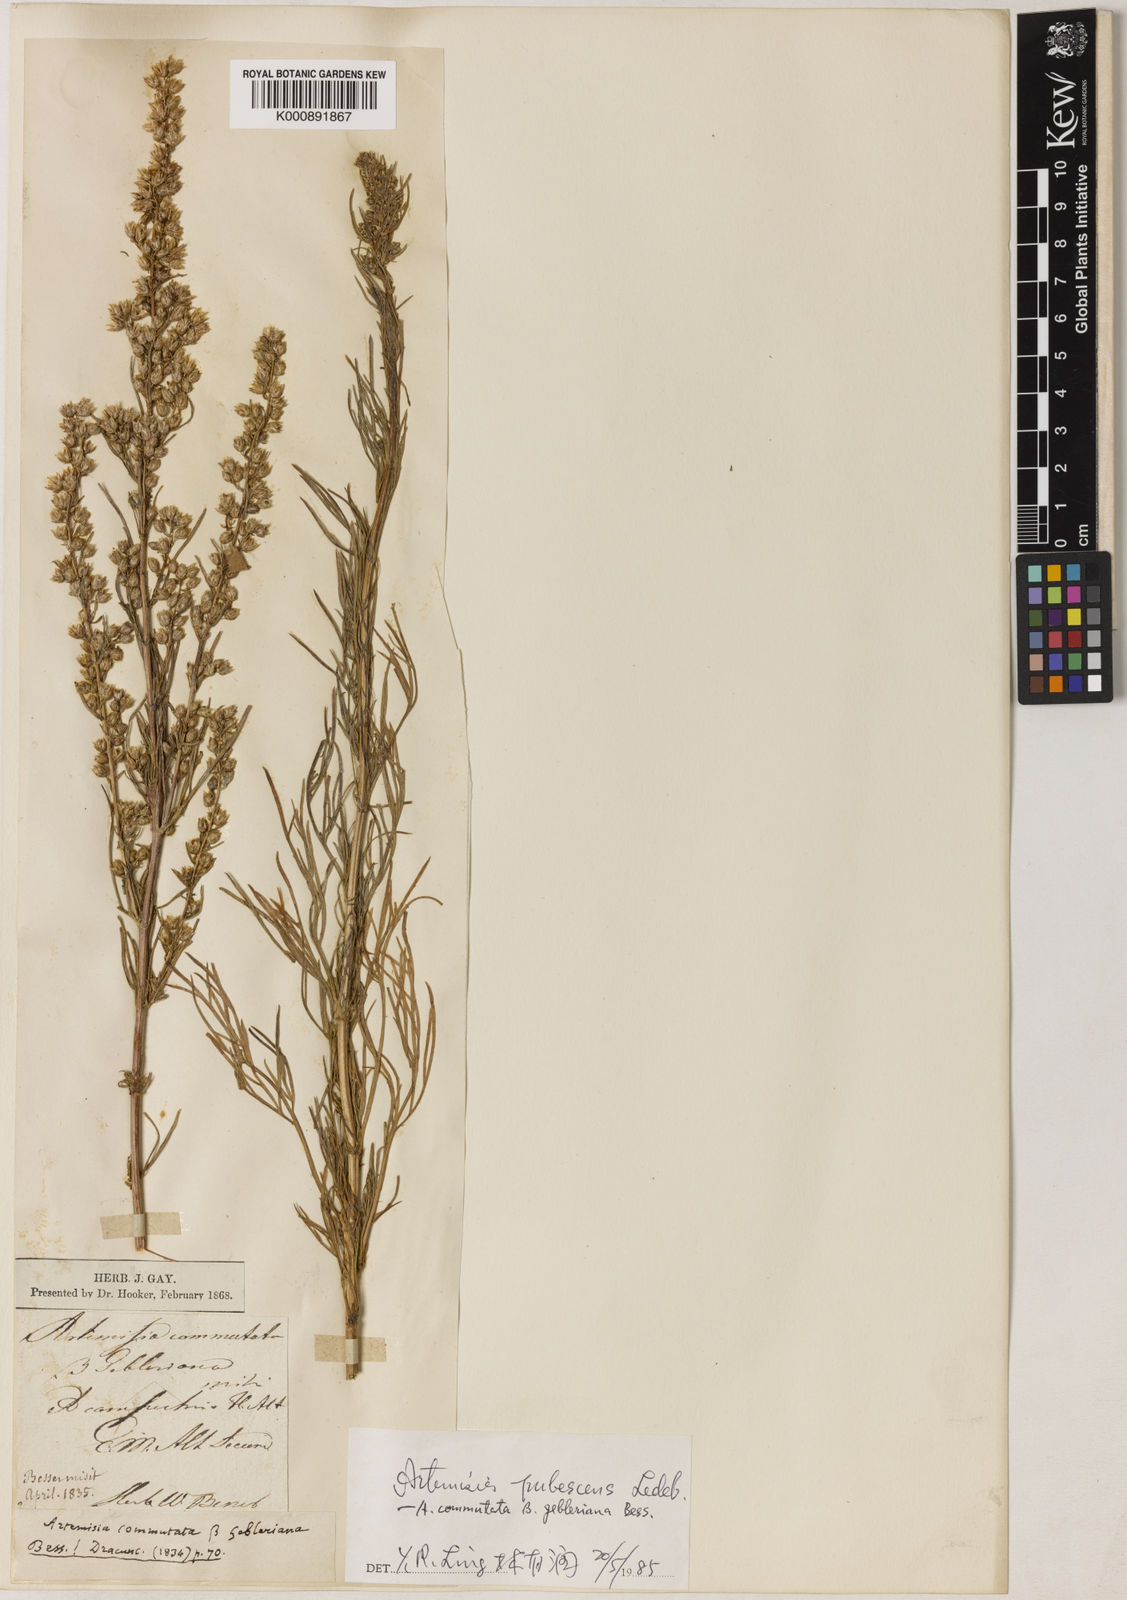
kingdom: Plantae
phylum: Tracheophyta
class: Magnoliopsida
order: Asterales
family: Asteraceae
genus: Artemisia
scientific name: Artemisia pubescens
